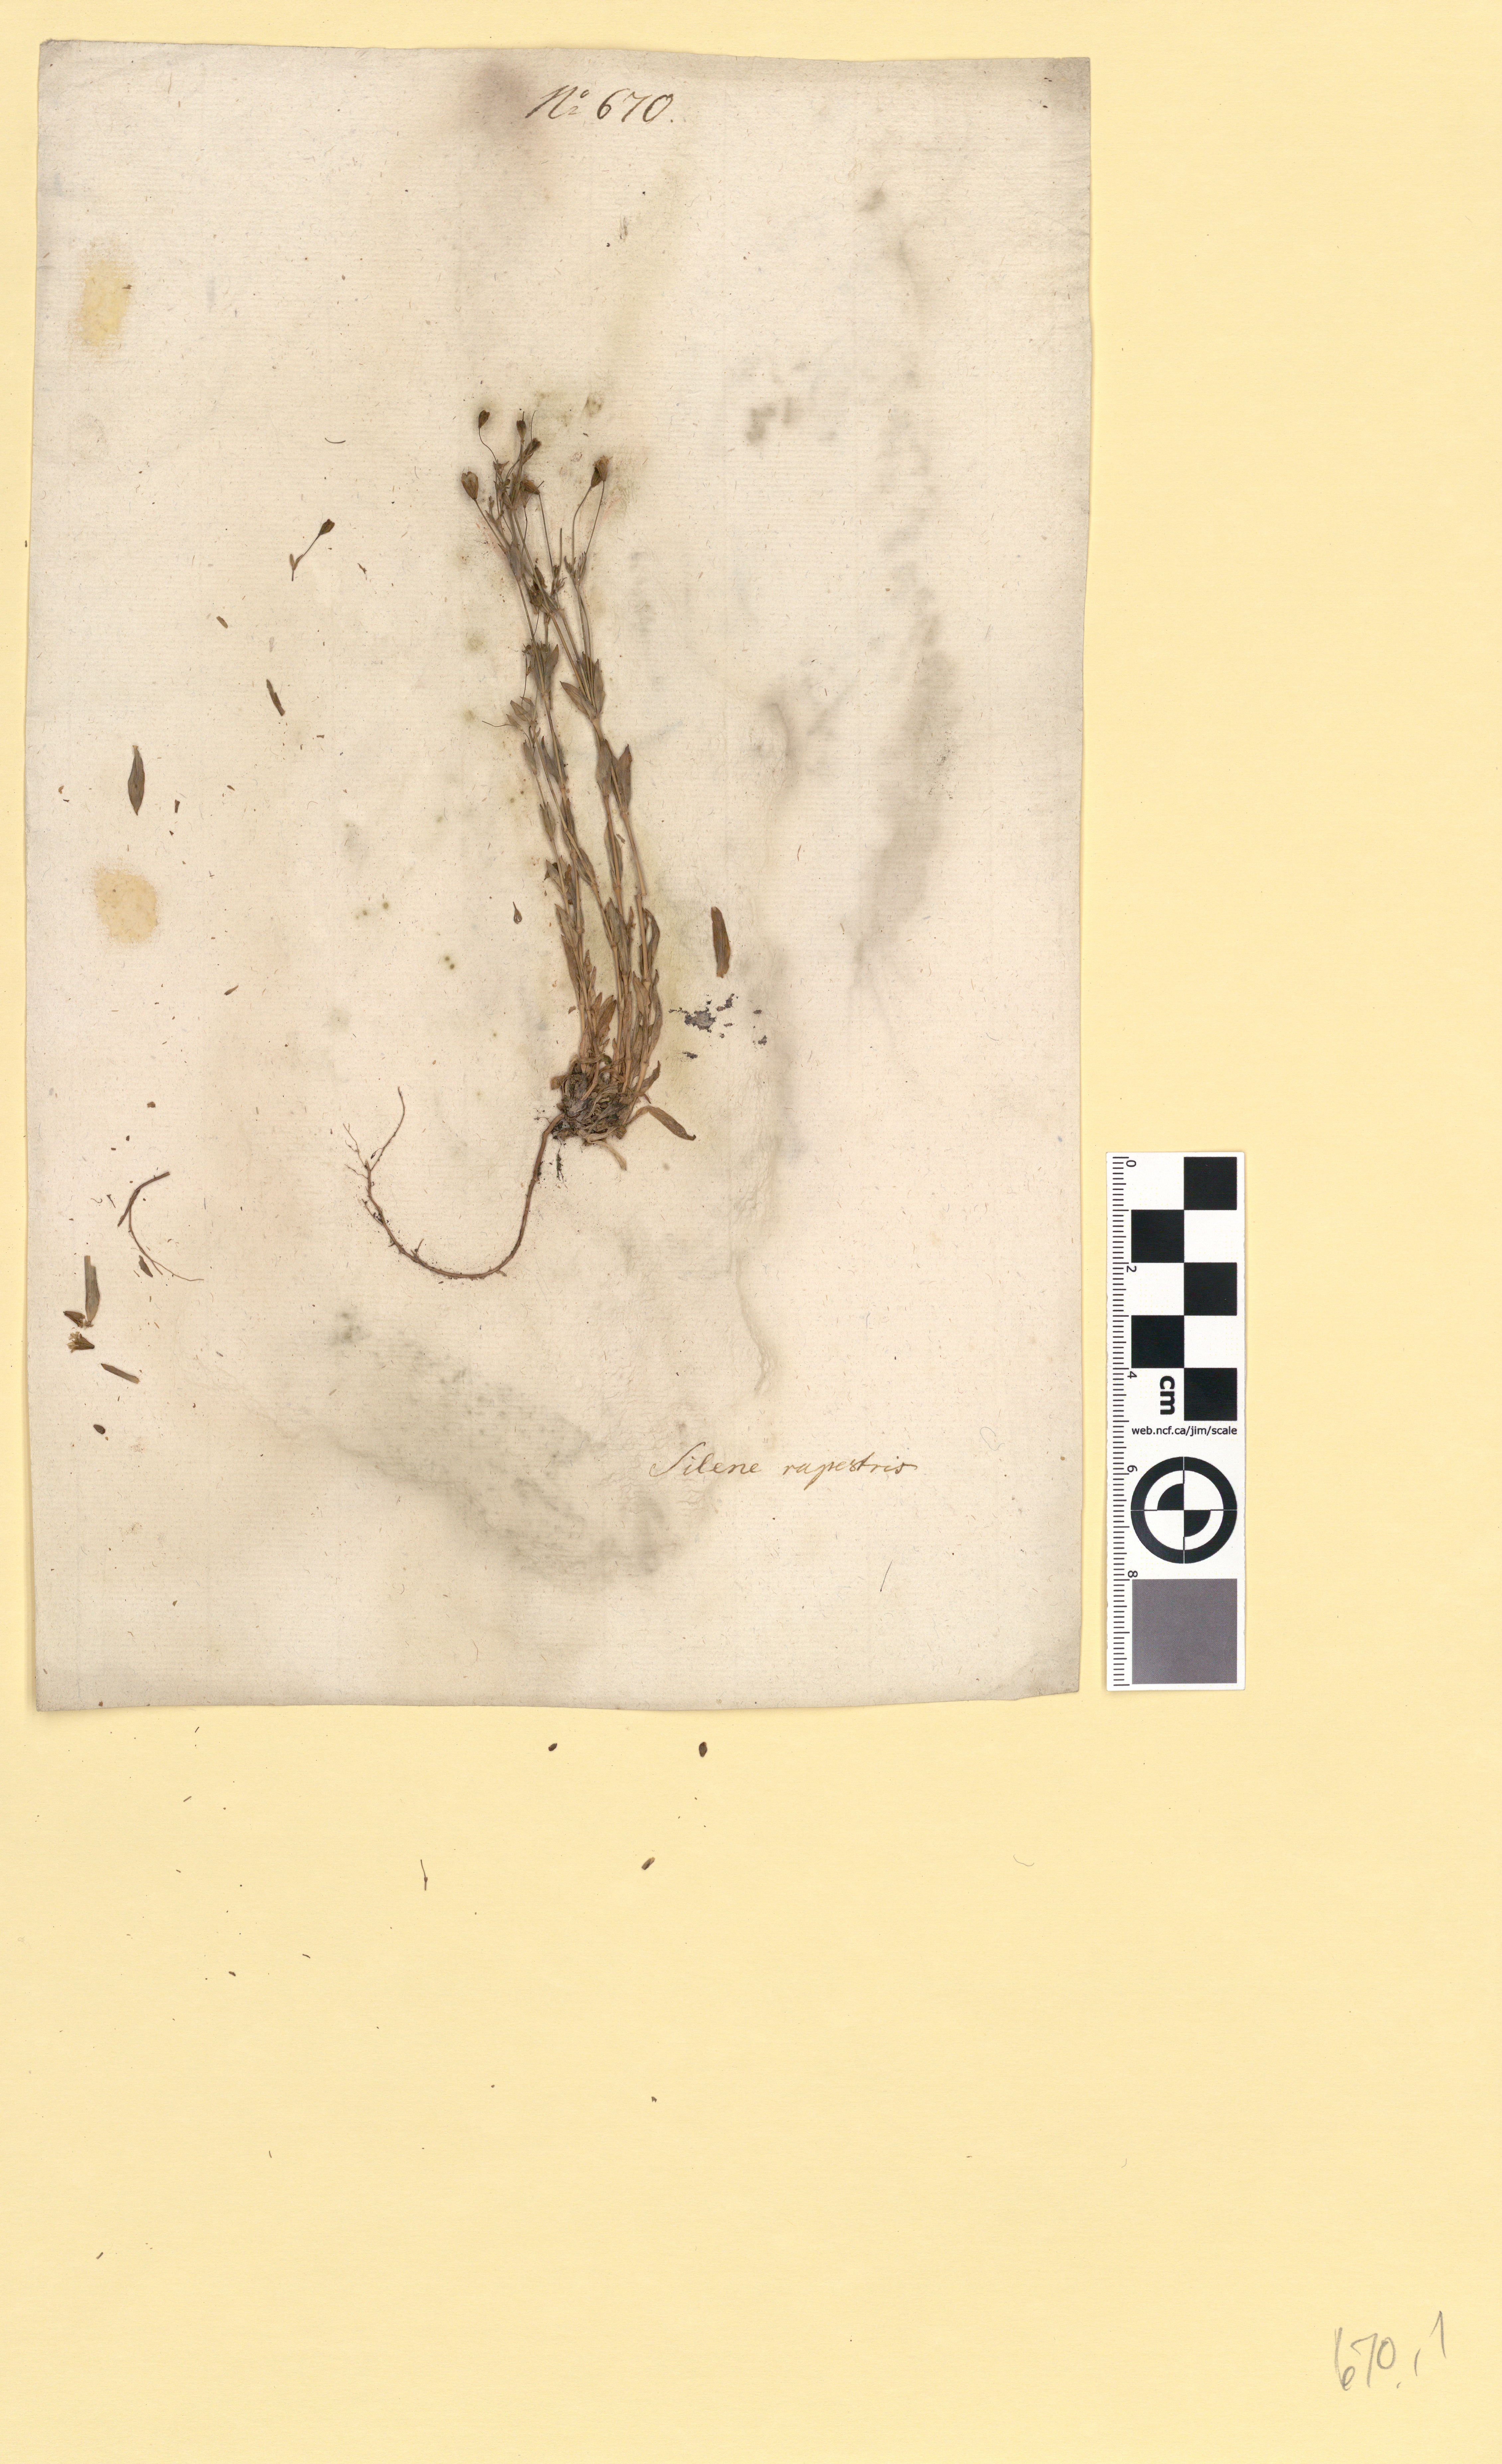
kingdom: Plantae
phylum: Tracheophyta
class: Magnoliopsida
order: Caryophyllales
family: Caryophyllaceae
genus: Atocion
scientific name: Atocion rupestre
